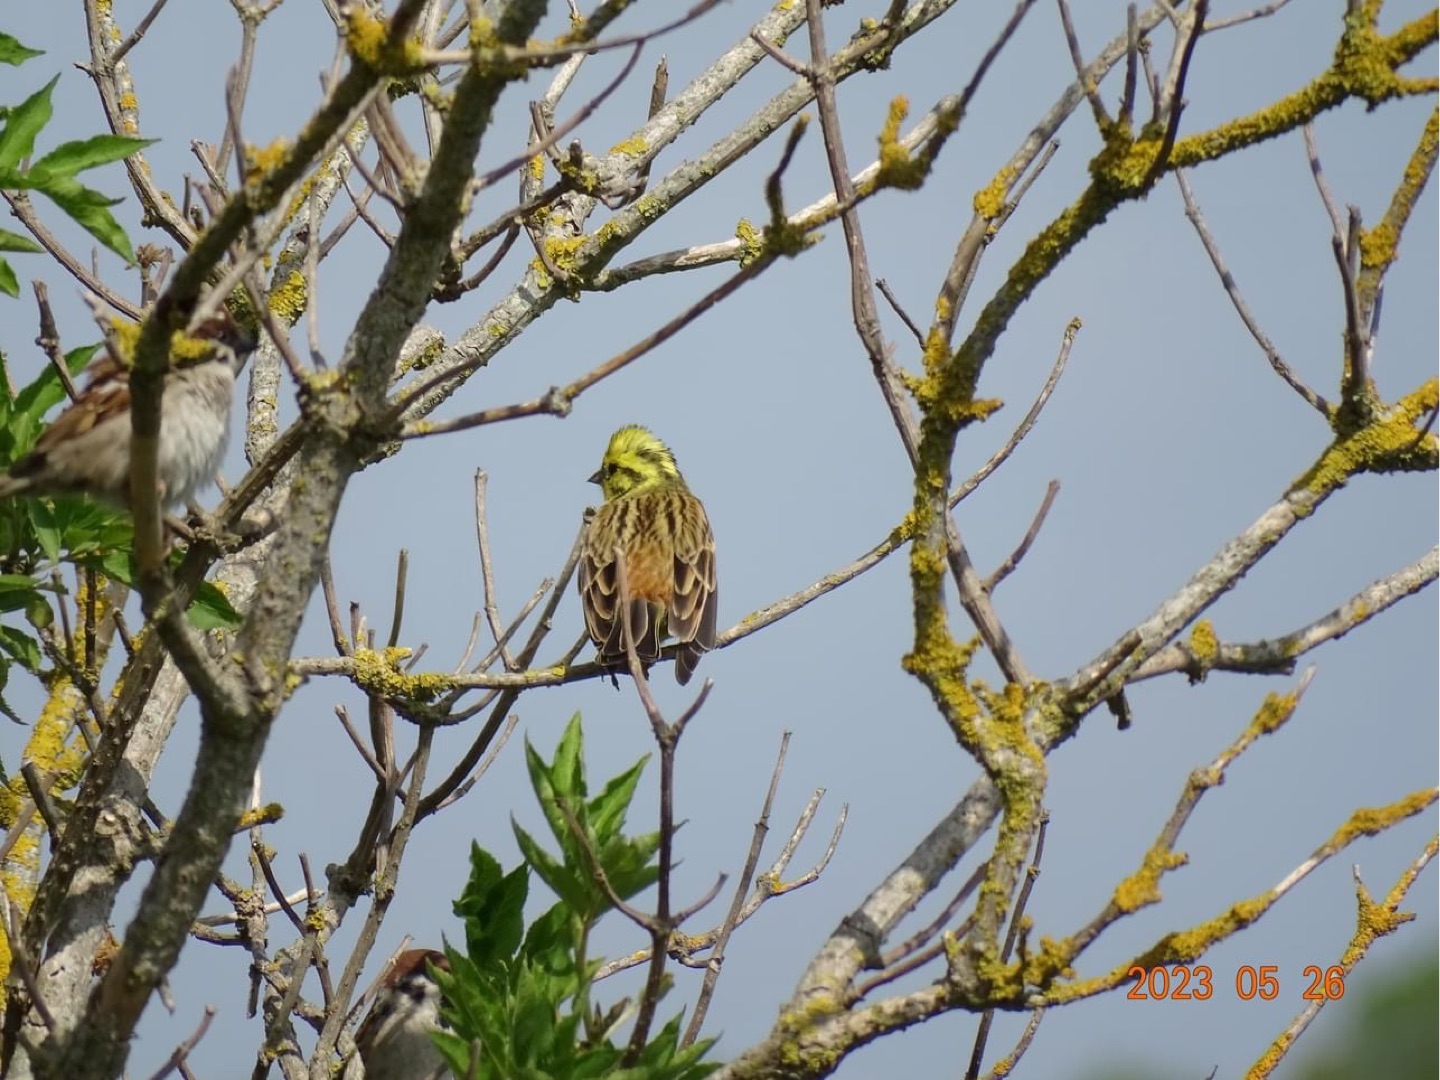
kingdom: Animalia
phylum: Chordata
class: Aves
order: Passeriformes
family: Emberizidae
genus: Emberiza
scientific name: Emberiza citrinella
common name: Gulspurv
